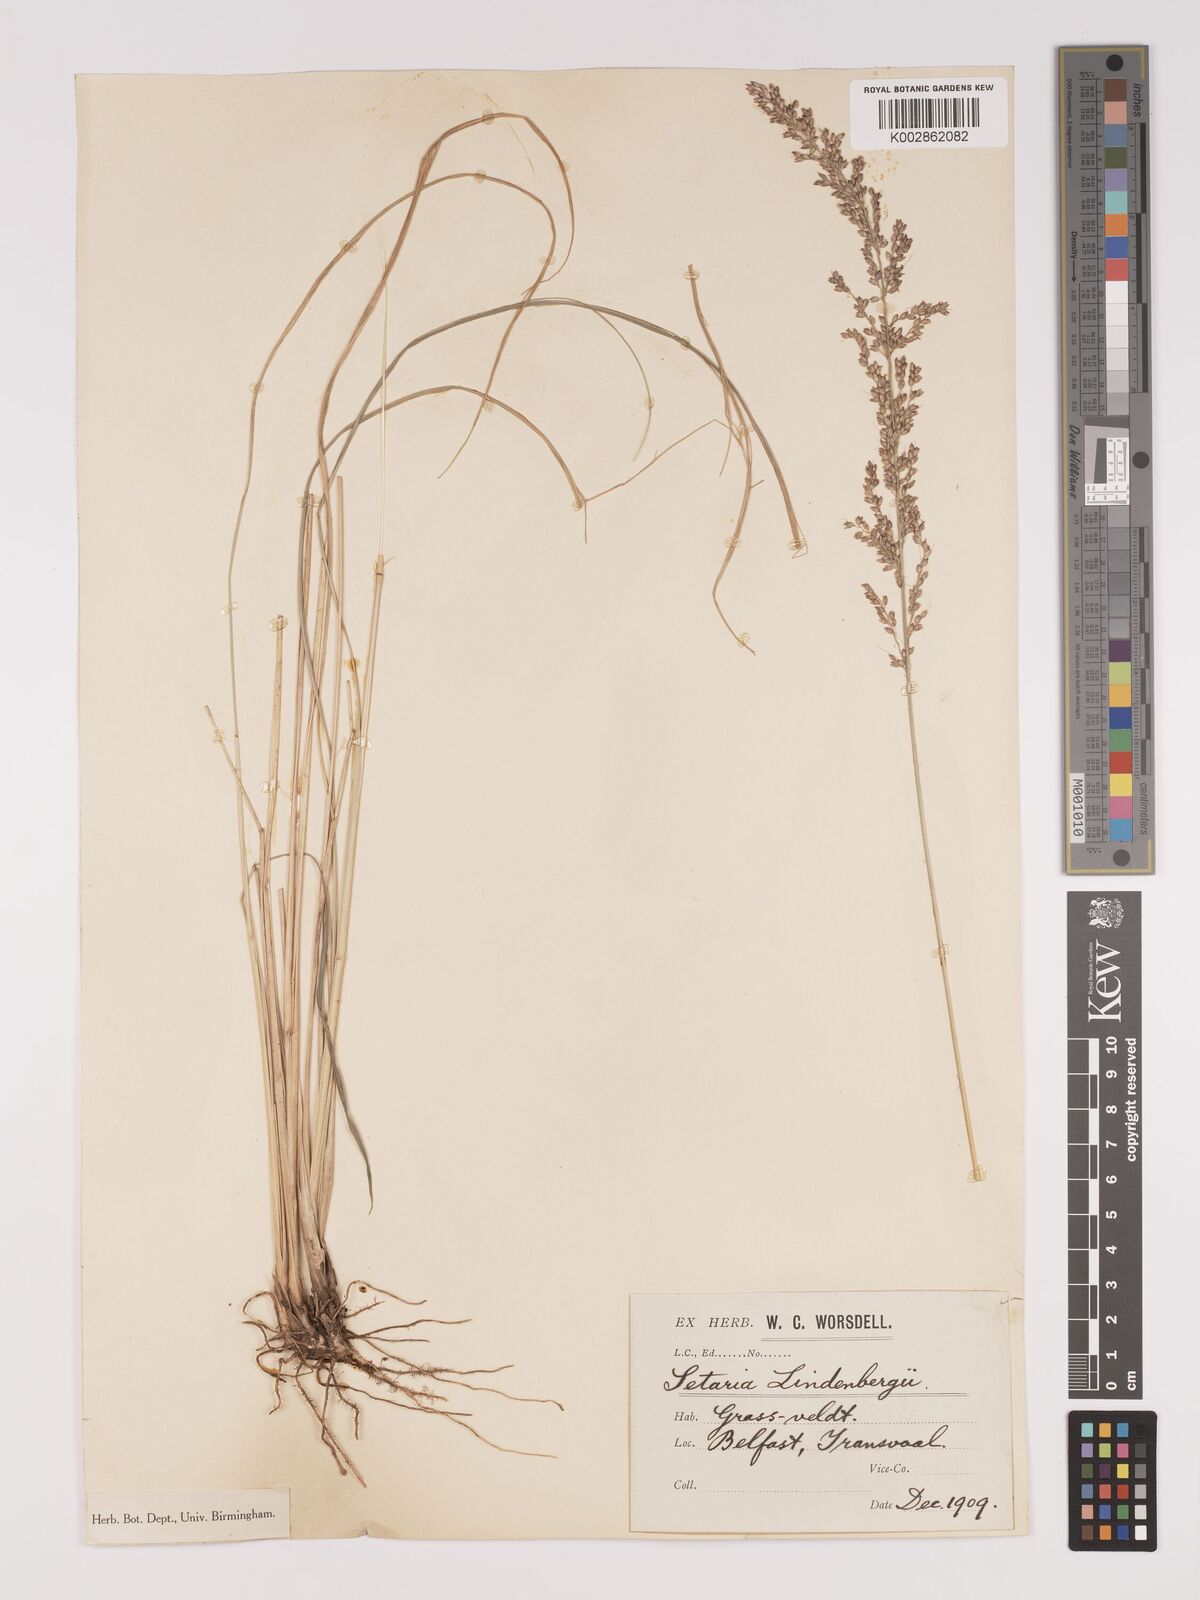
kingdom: Plantae
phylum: Tracheophyta
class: Liliopsida
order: Poales
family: Poaceae
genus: Setaria
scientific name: Setaria lindenbergiana
